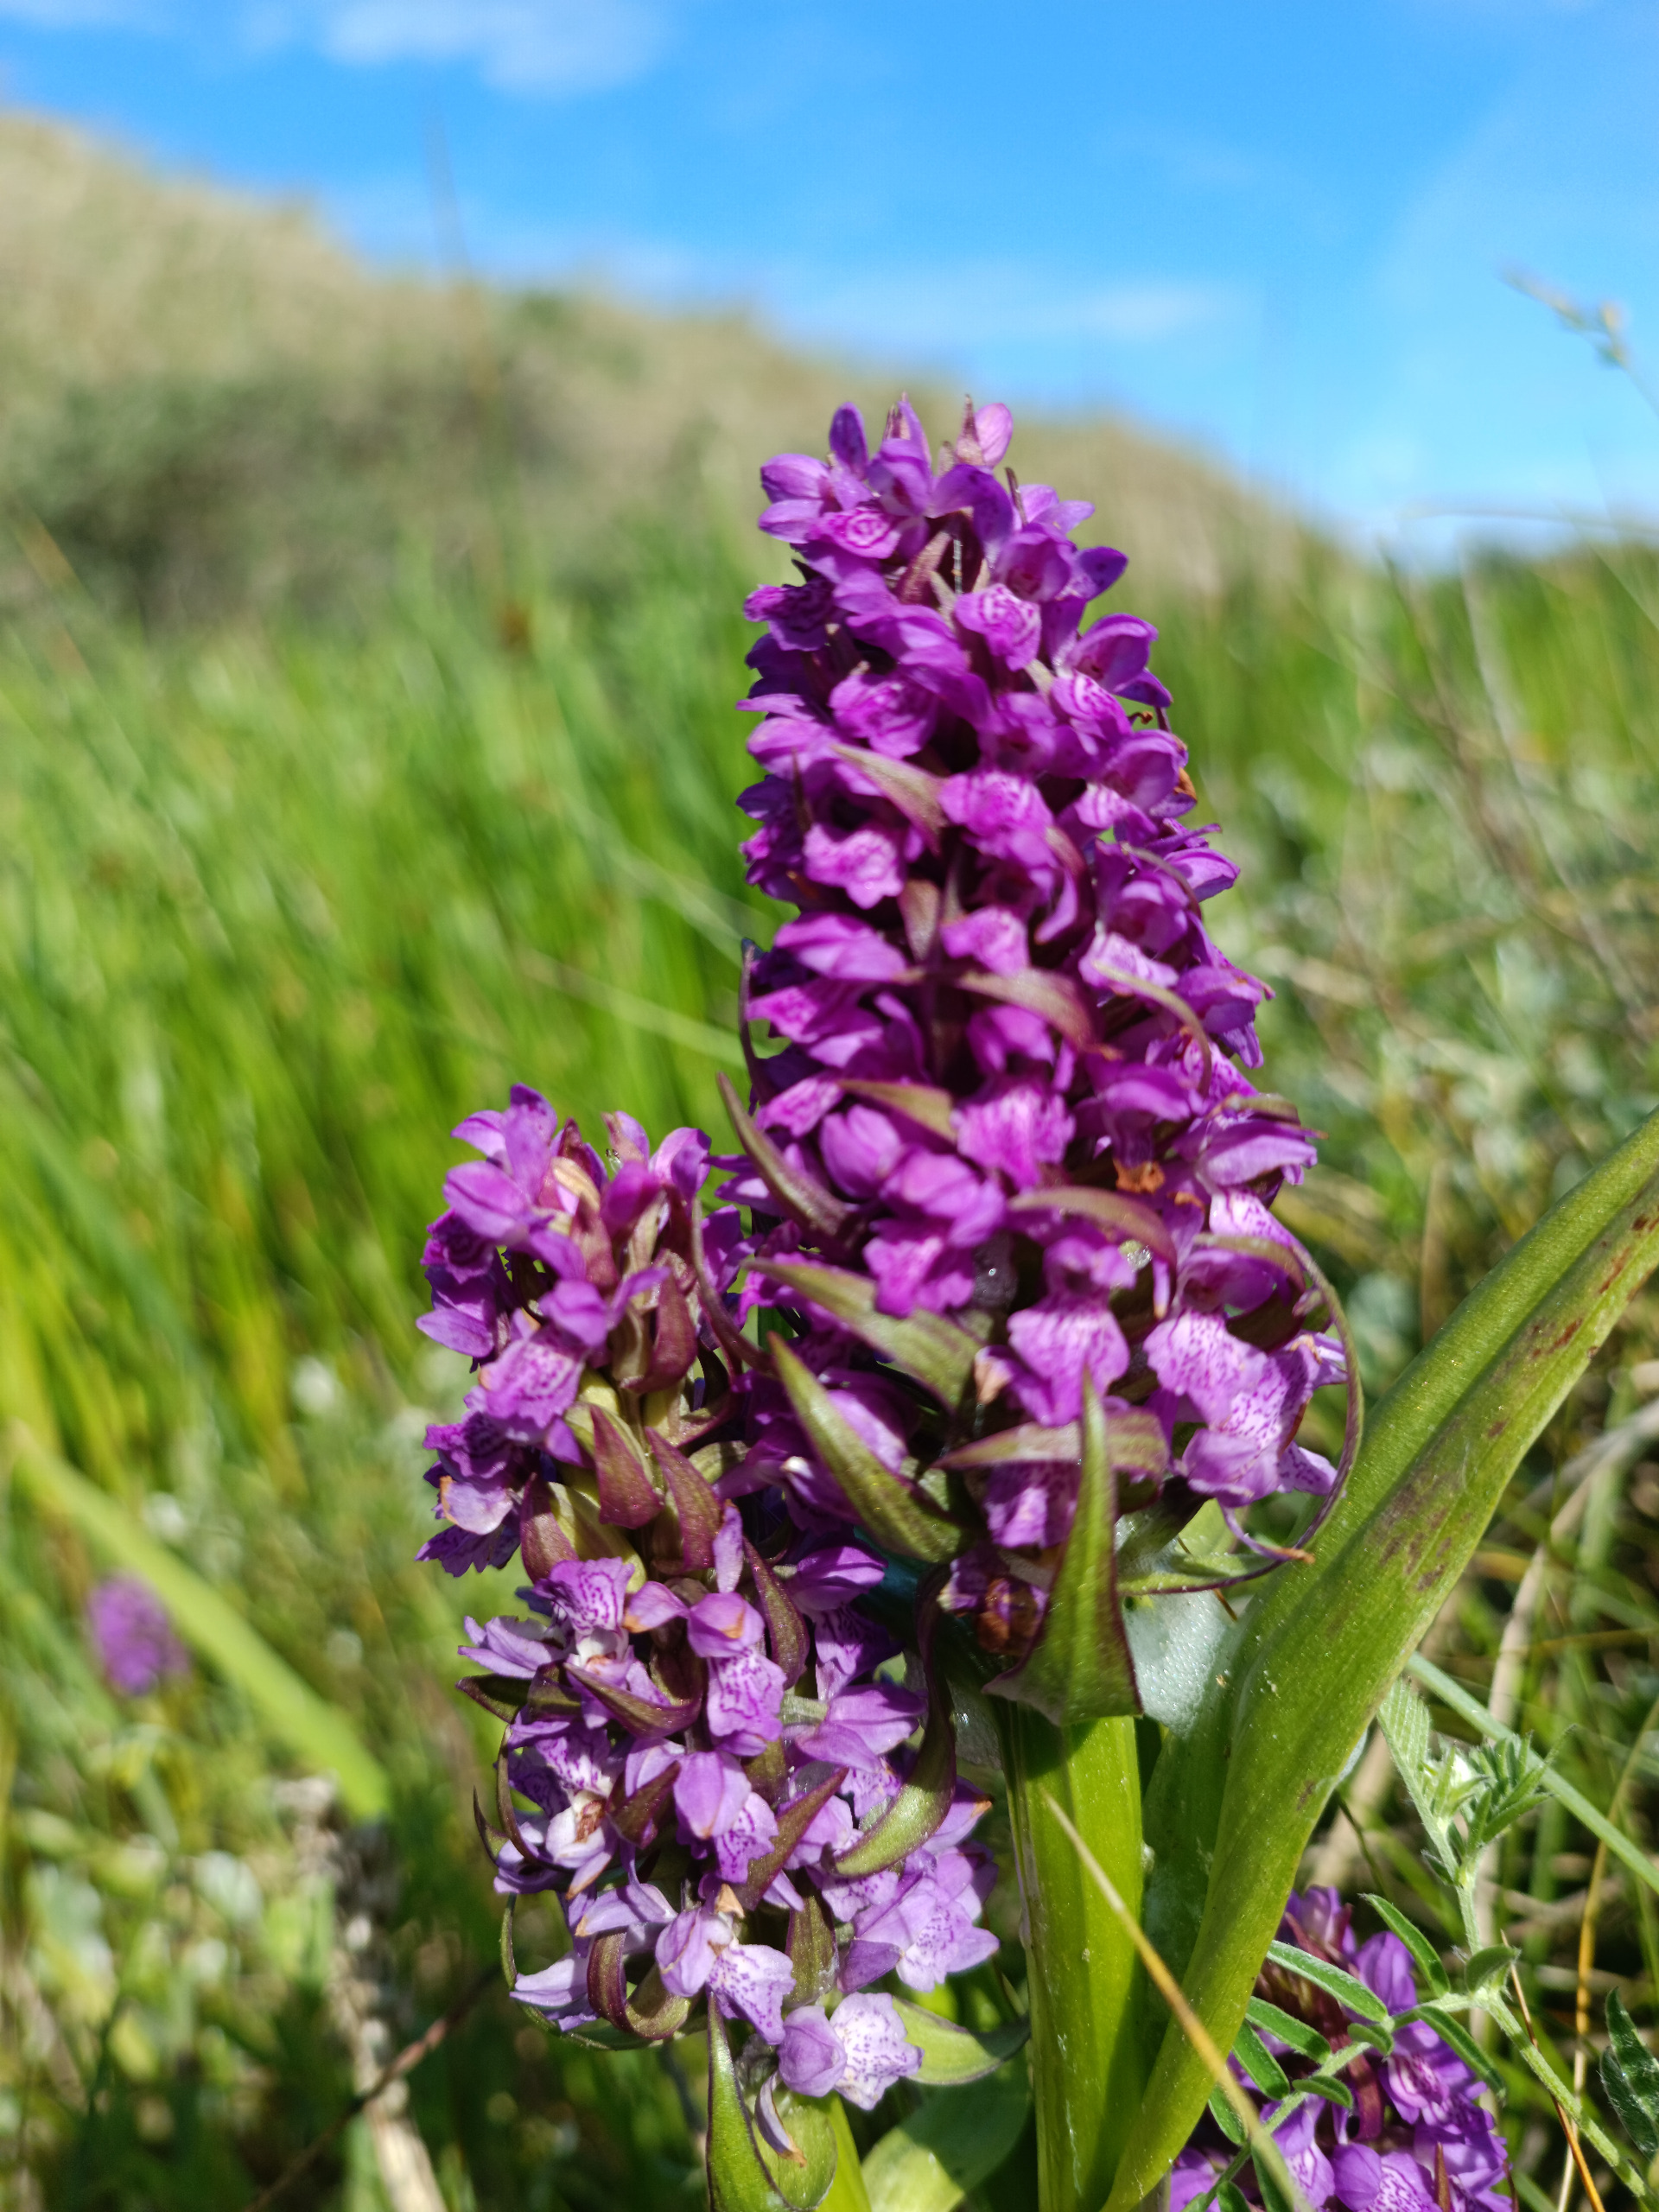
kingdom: Plantae
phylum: Tracheophyta
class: Liliopsida
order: Asparagales
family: Orchidaceae
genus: Dactylorhiza
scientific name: Dactylorhiza majalis
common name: Maj-gøgeurt
